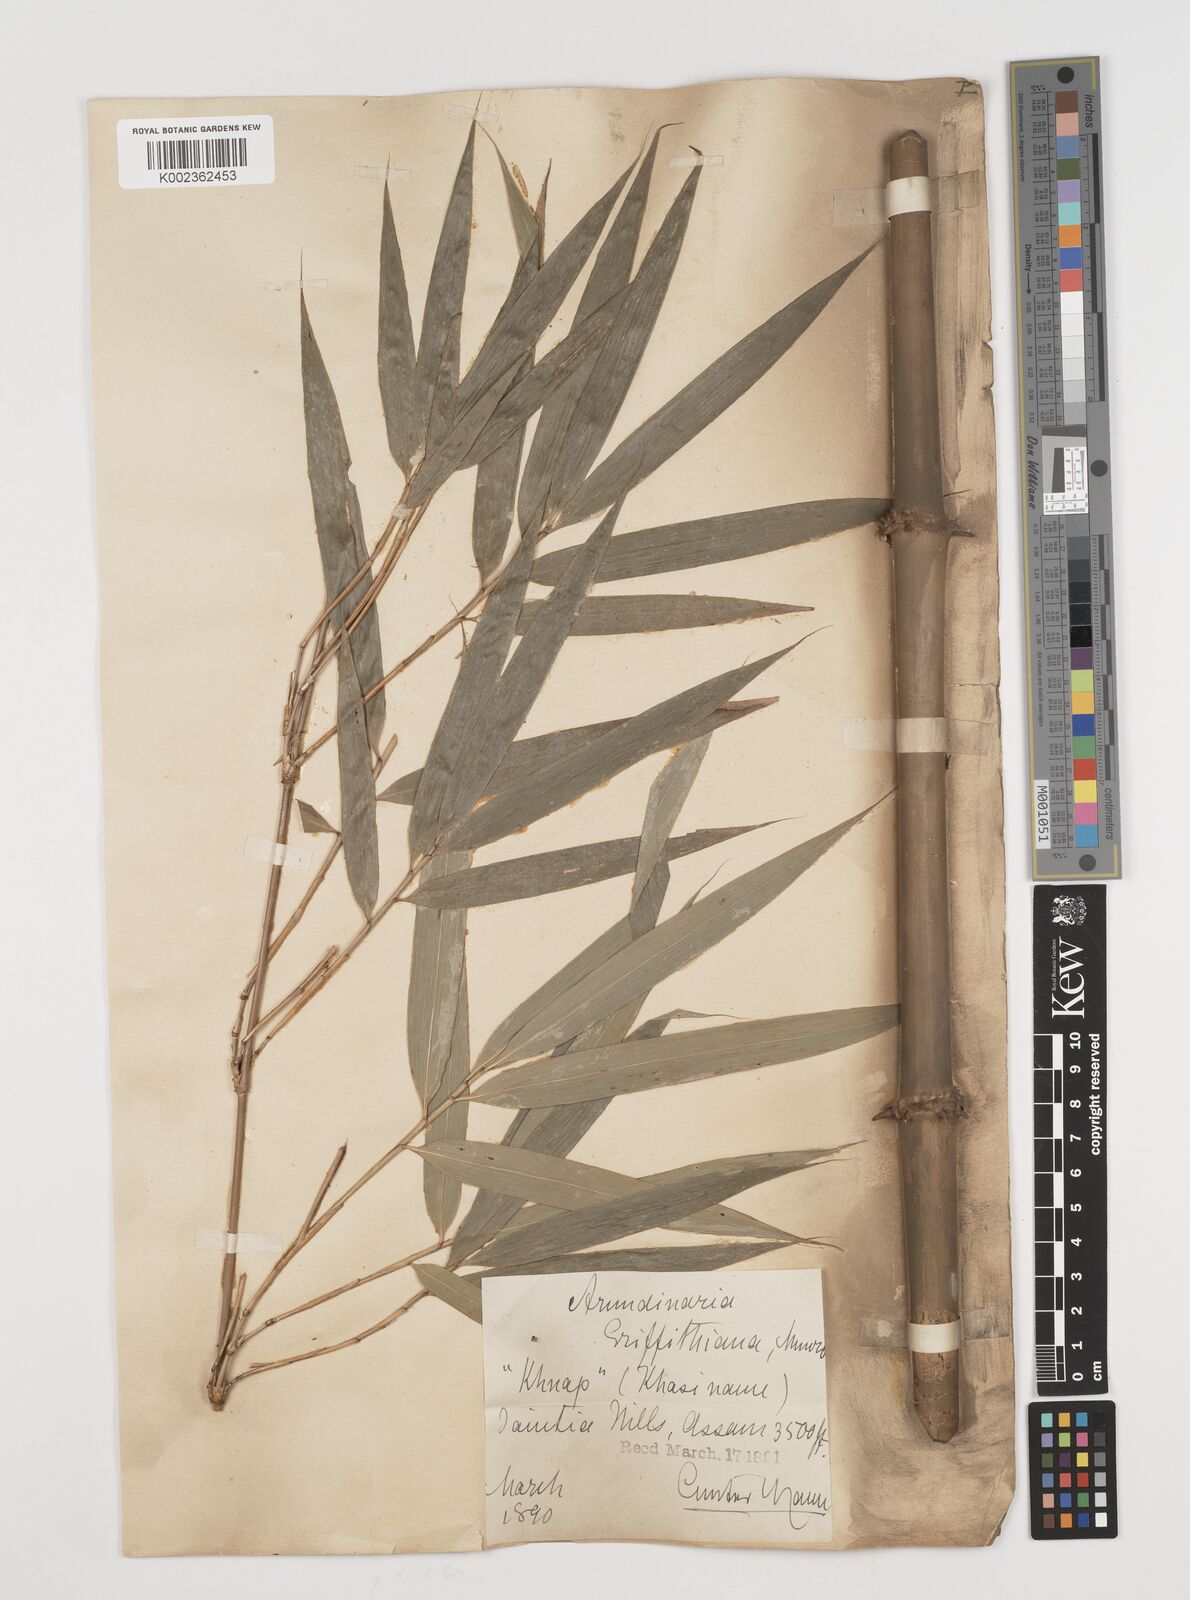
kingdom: Plantae
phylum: Tracheophyta
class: Liliopsida
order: Poales
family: Poaceae
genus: Chimonocalamus
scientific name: Chimonocalamus griffithianus
